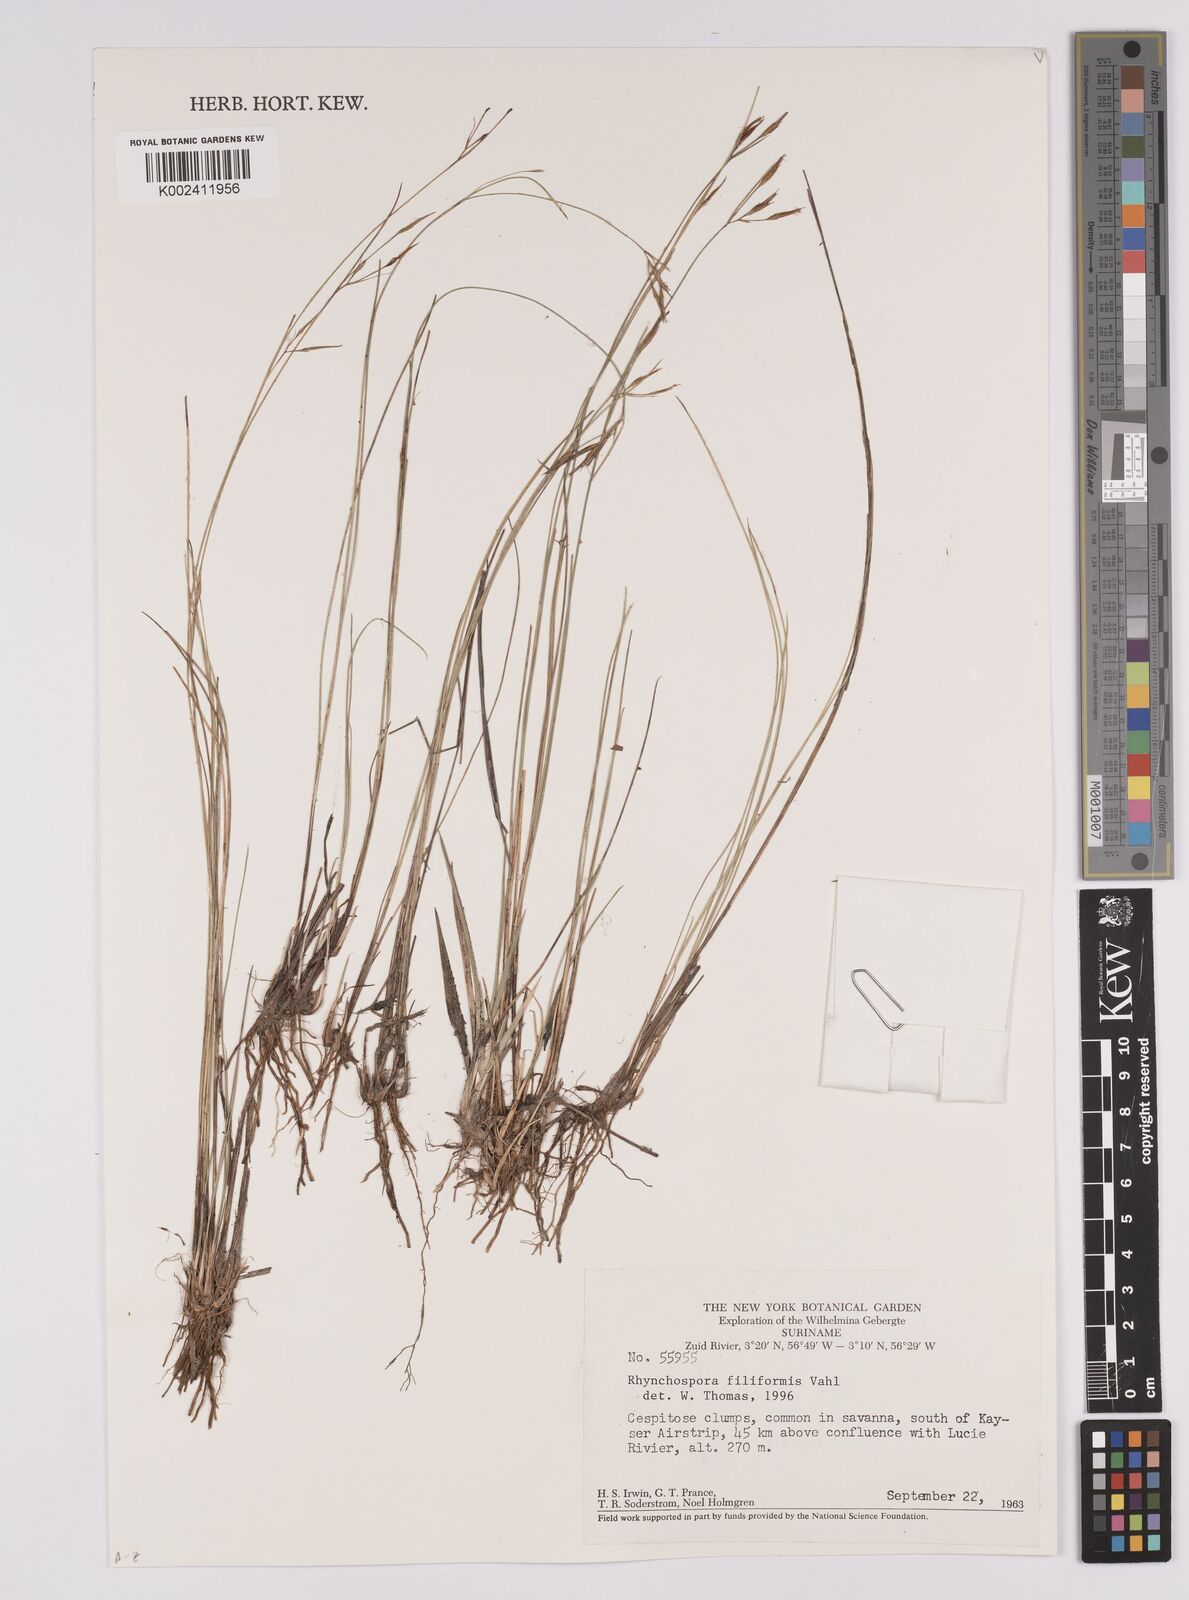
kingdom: Plantae
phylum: Tracheophyta
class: Liliopsida
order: Poales
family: Cyperaceae
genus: Rhynchospora
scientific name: Rhynchospora filiformis
